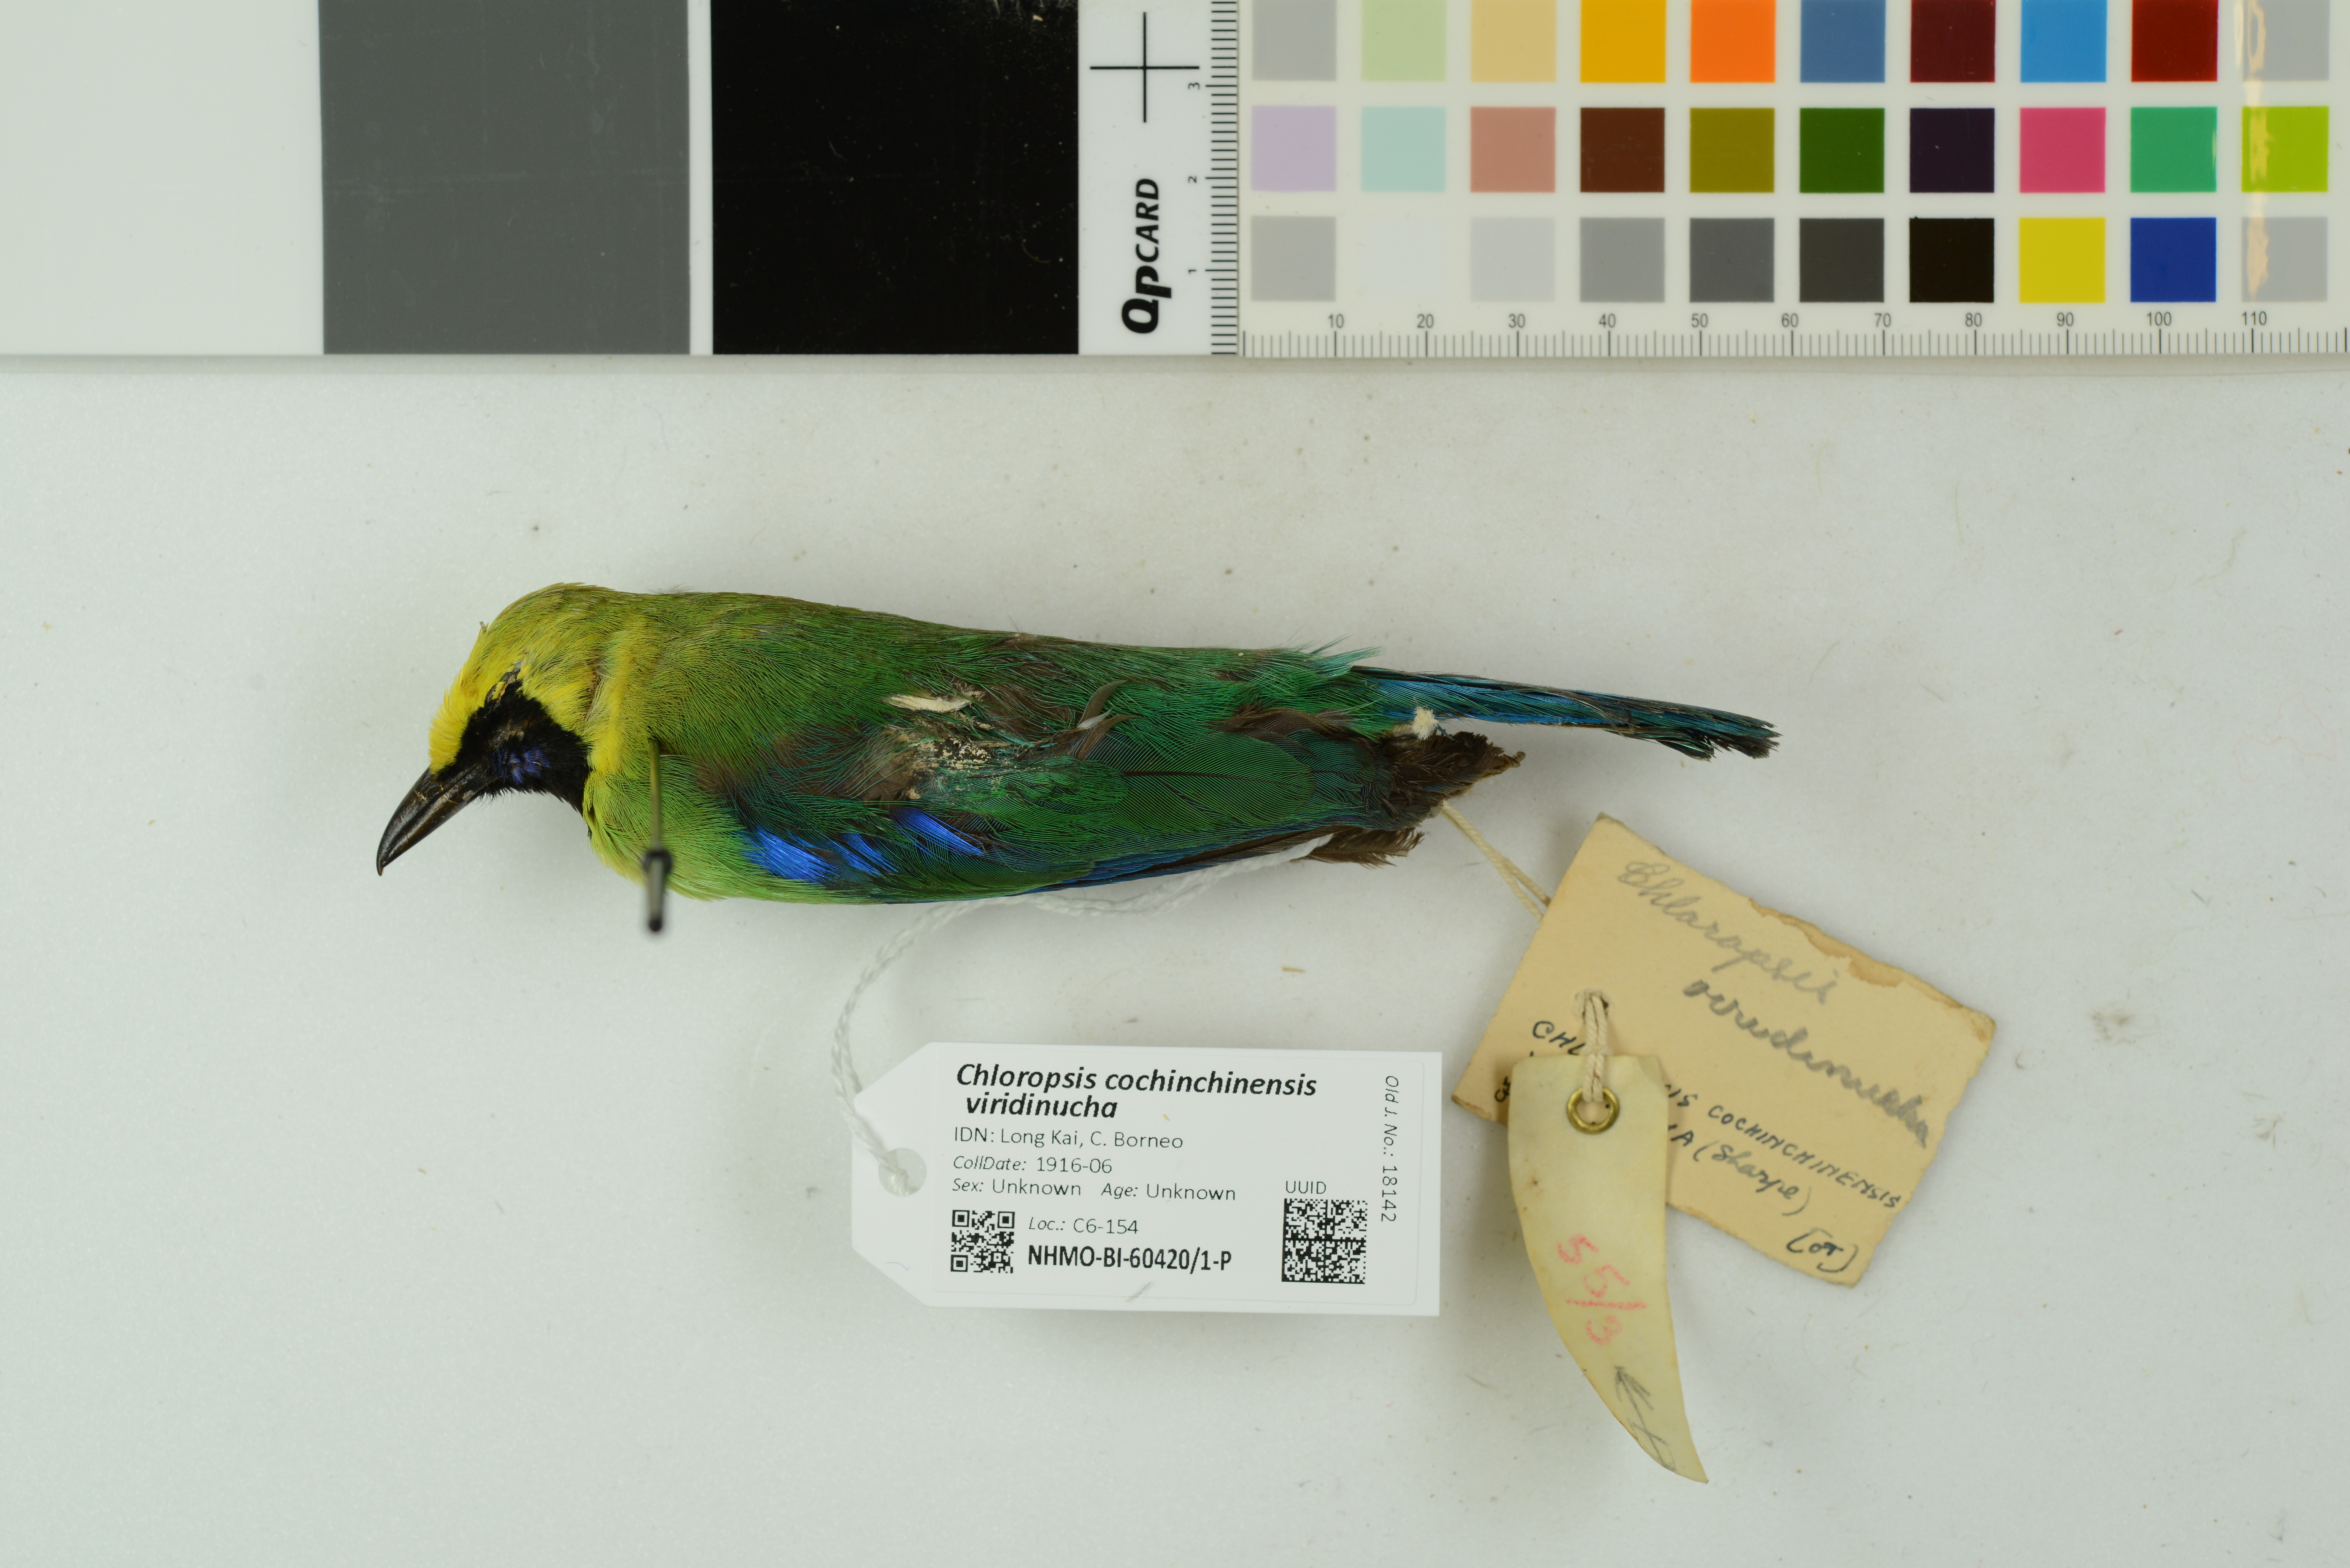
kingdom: Animalia
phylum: Chordata
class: Aves
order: Passeriformes
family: Chloropseidae
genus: Chloropsis
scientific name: Chloropsis cochinchinensis
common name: Blue-winged leafbird
